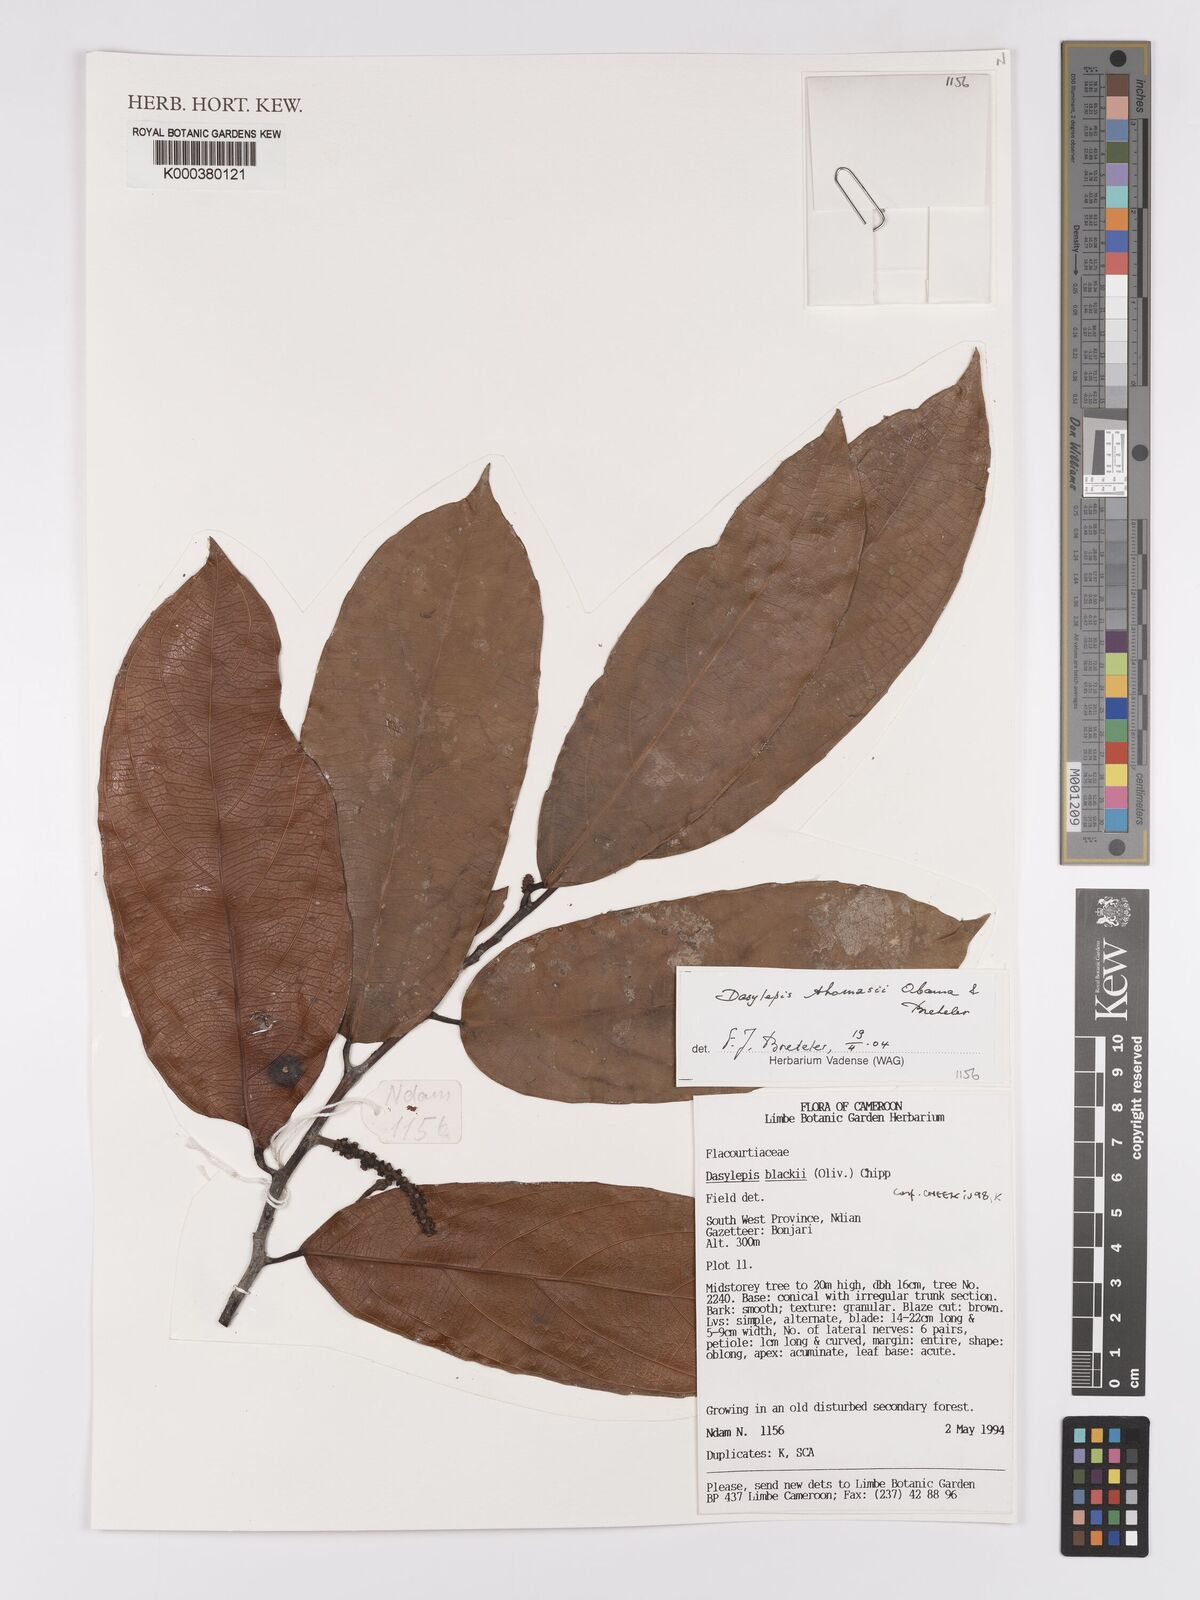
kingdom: Plantae
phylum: Tracheophyta
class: Magnoliopsida
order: Malpighiales
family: Achariaceae
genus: Dasylepis
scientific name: Dasylepis thomasii
